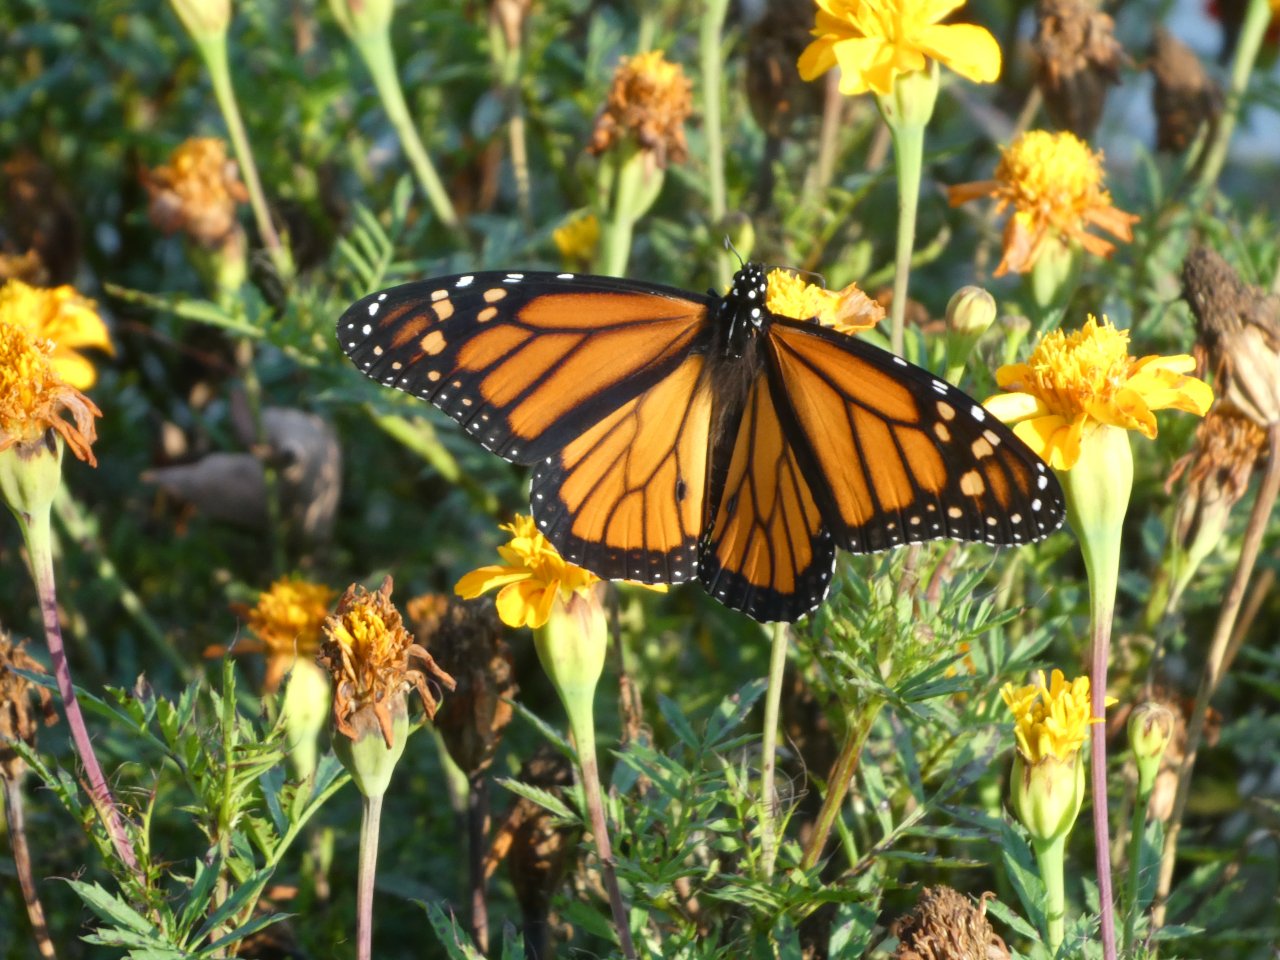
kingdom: Animalia
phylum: Arthropoda
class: Insecta
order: Lepidoptera
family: Nymphalidae
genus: Danaus
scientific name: Danaus plexippus
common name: Monarch
